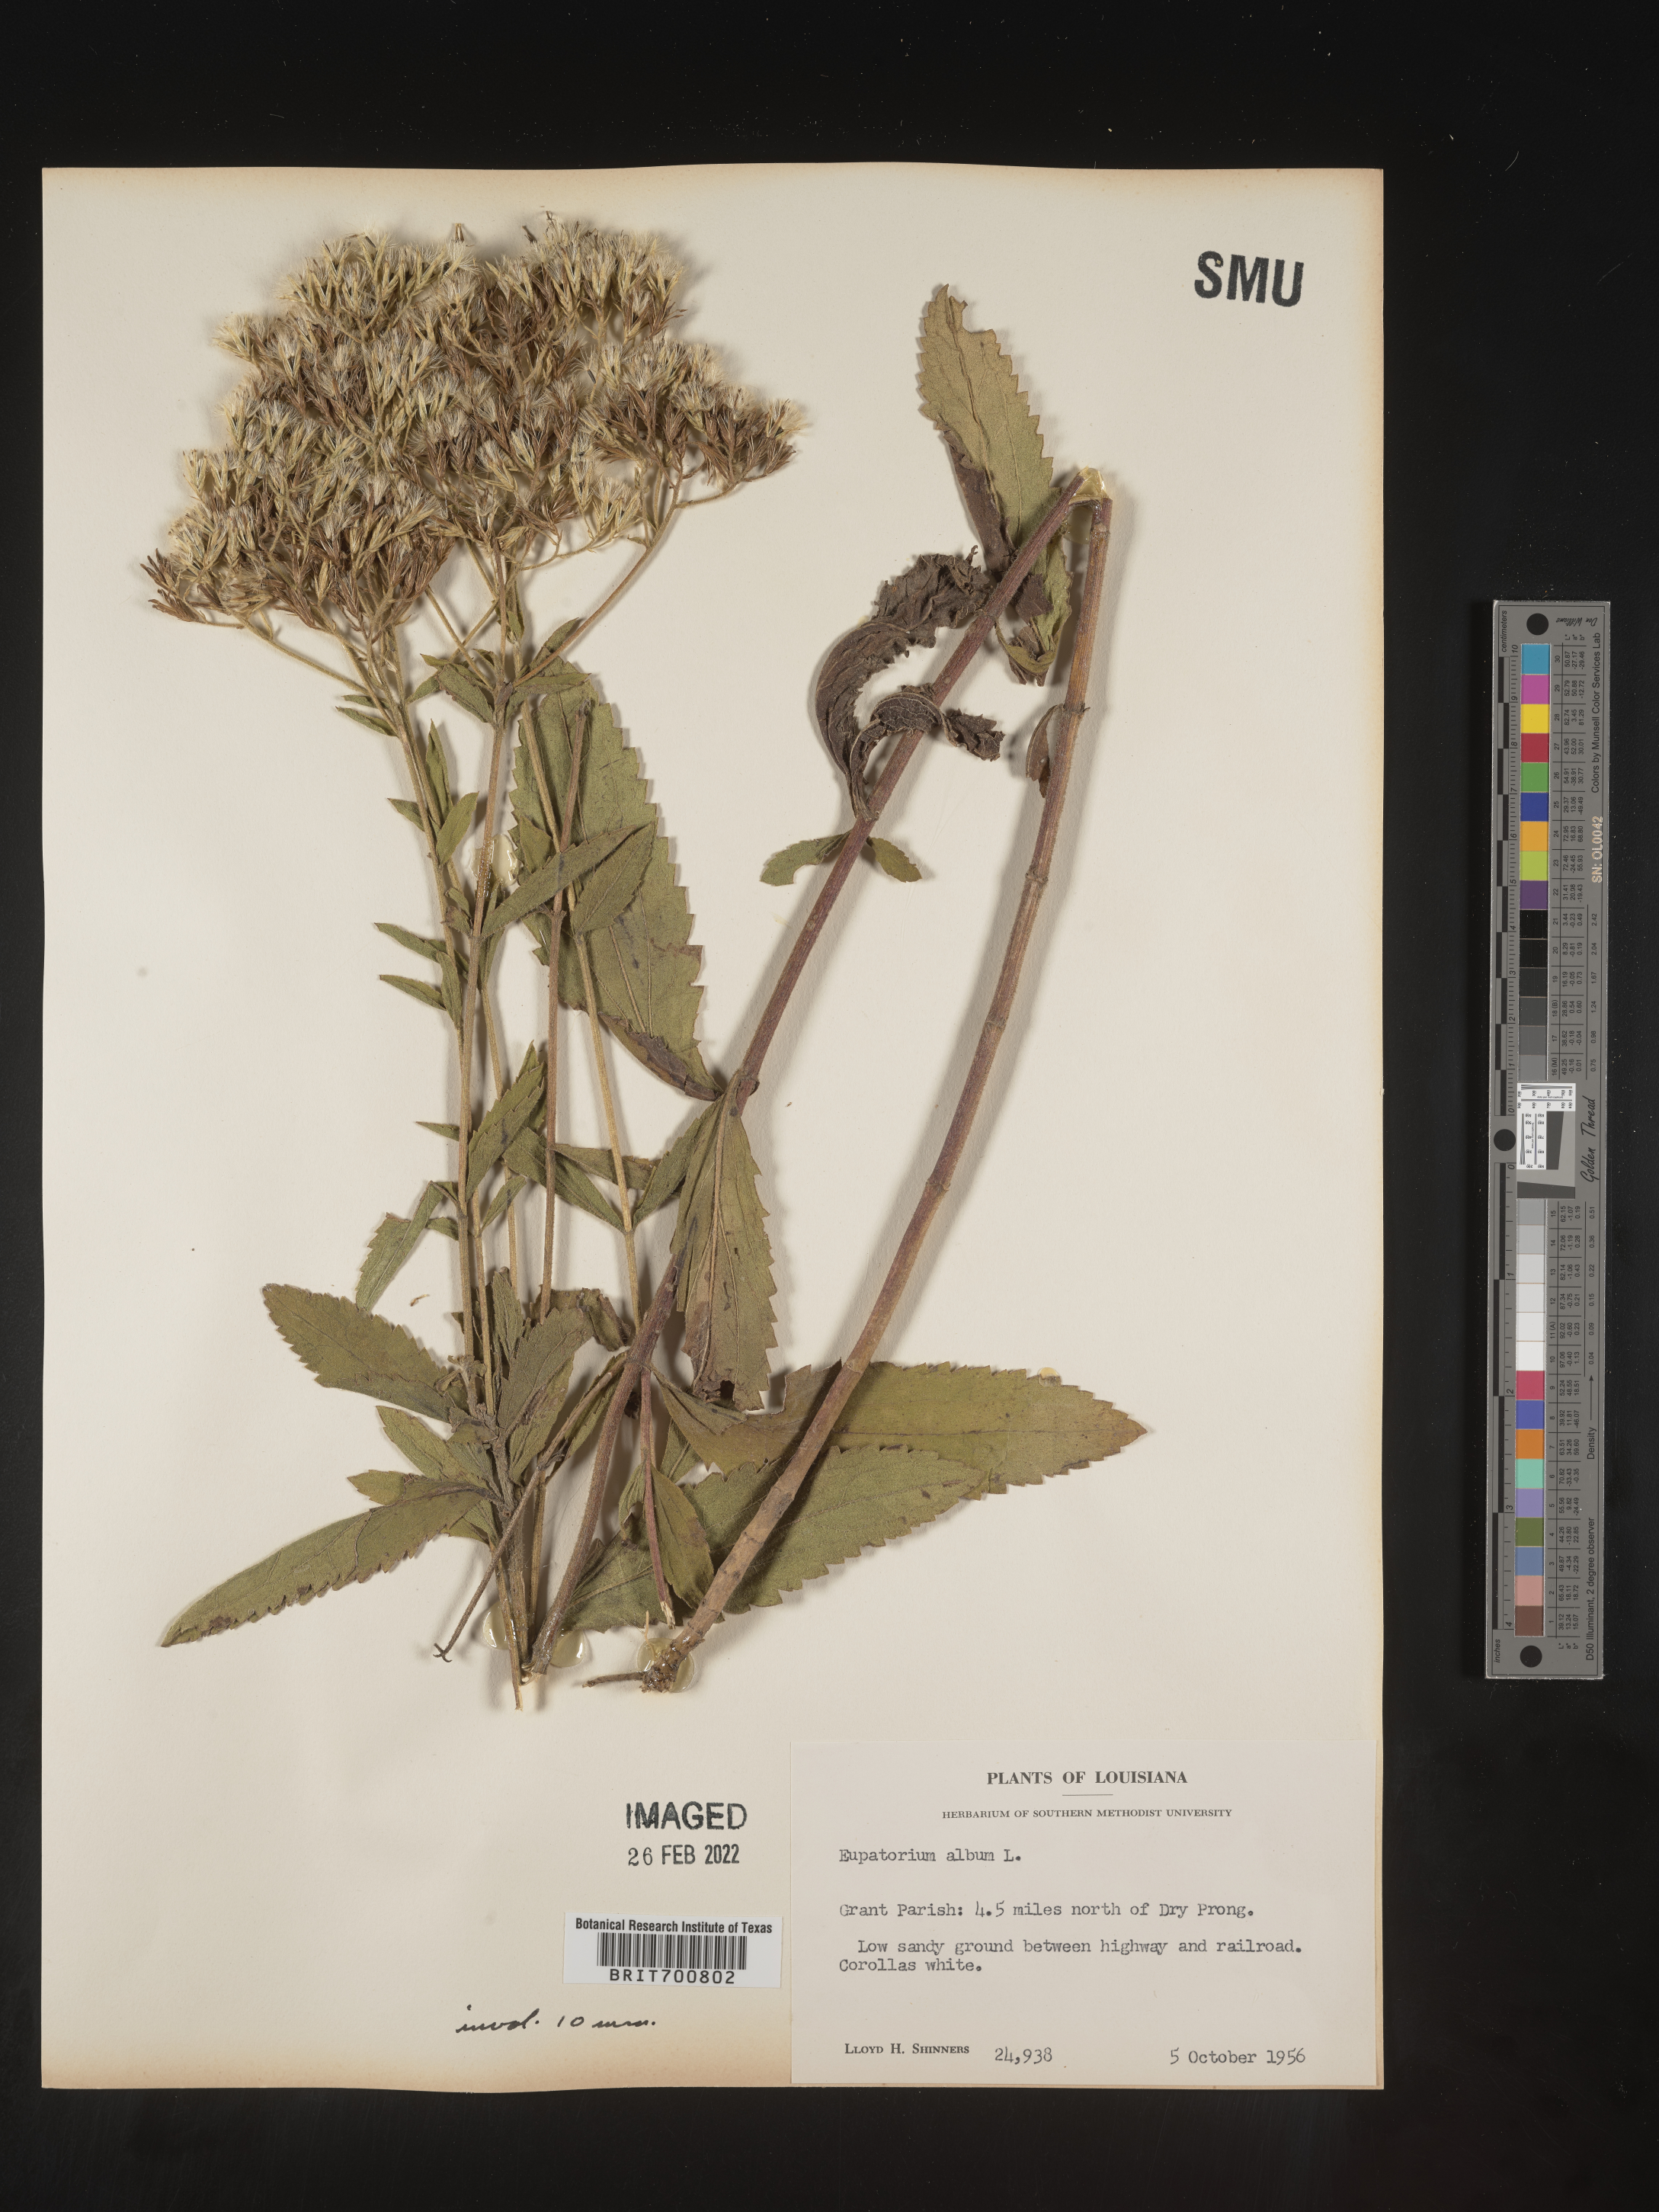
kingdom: Plantae
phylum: Tracheophyta
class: Magnoliopsida
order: Asterales
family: Asteraceae
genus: Eupatorium
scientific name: Eupatorium album
